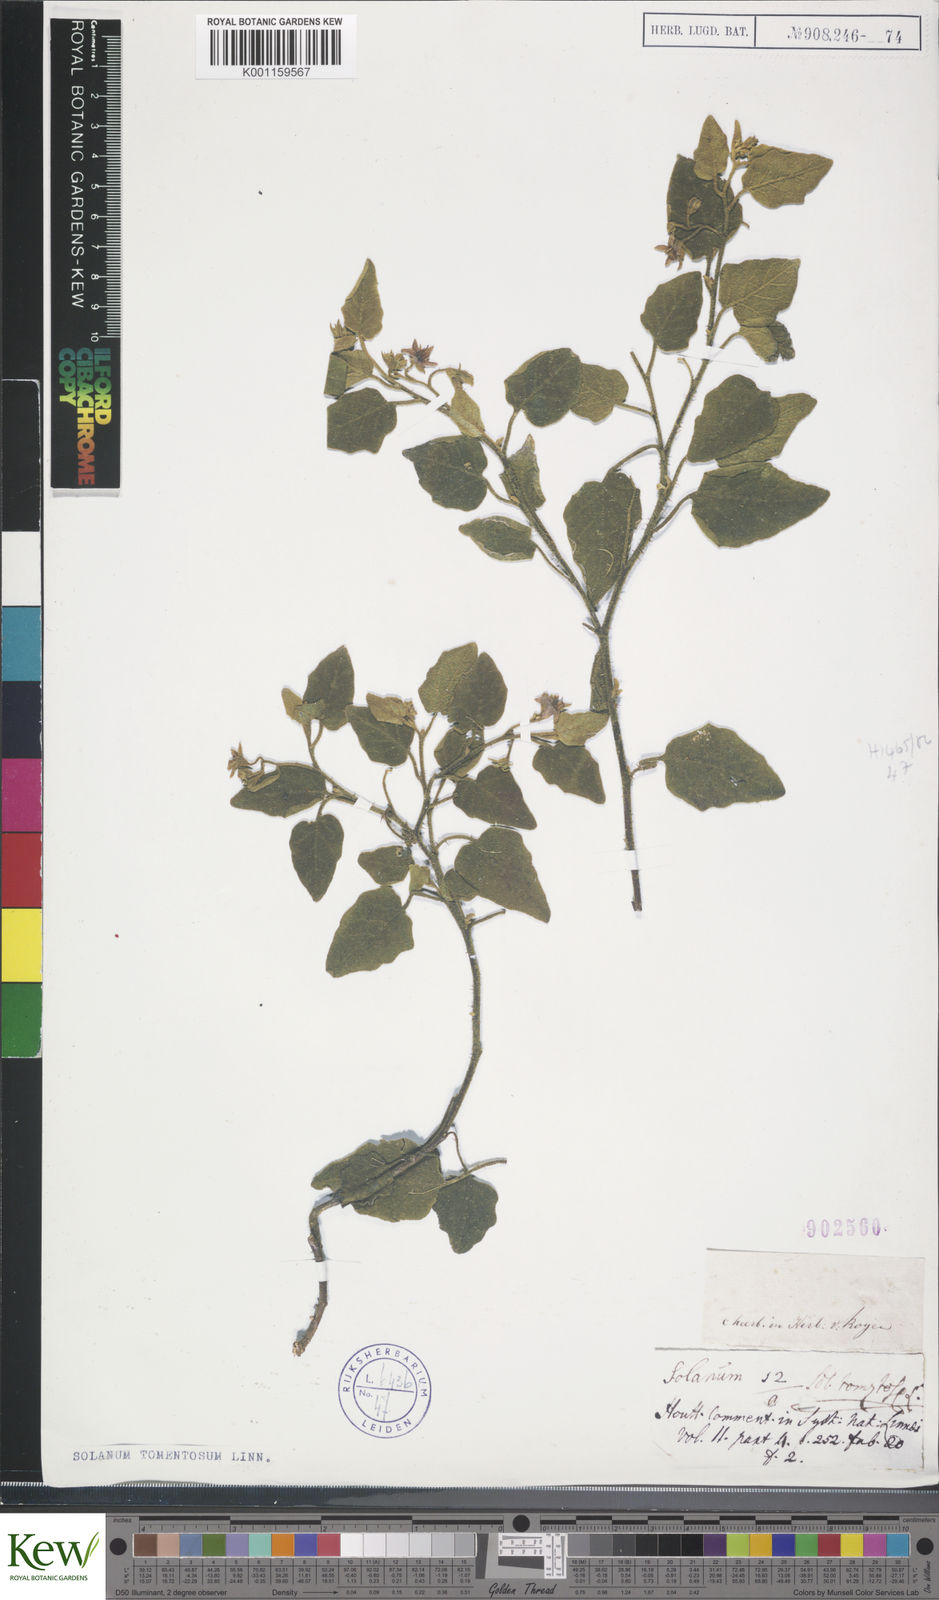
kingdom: Plantae
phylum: Tracheophyta
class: Magnoliopsida
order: Solanales
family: Solanaceae
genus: Solanum
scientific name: Solanum tomentosum
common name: Wild aubergine
